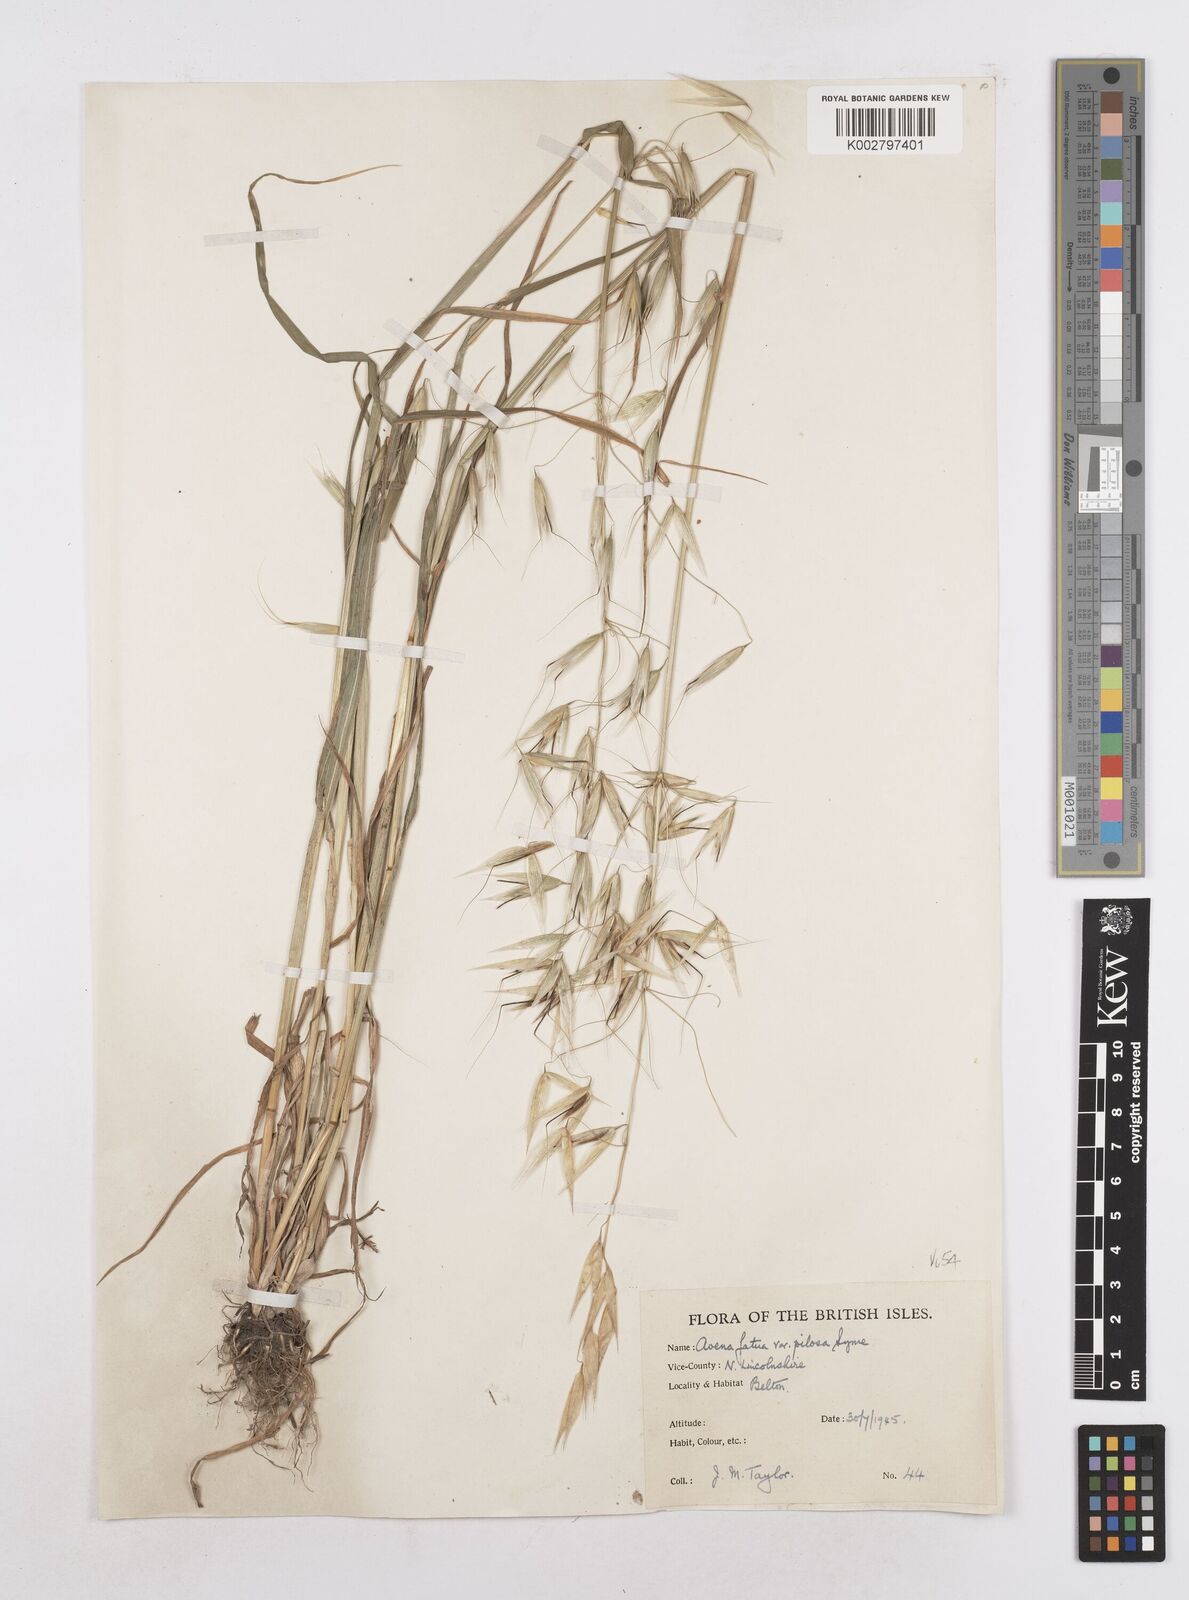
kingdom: Plantae
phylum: Tracheophyta
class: Liliopsida
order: Poales
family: Poaceae
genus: Avena
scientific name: Avena fatua
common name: Wild oat
